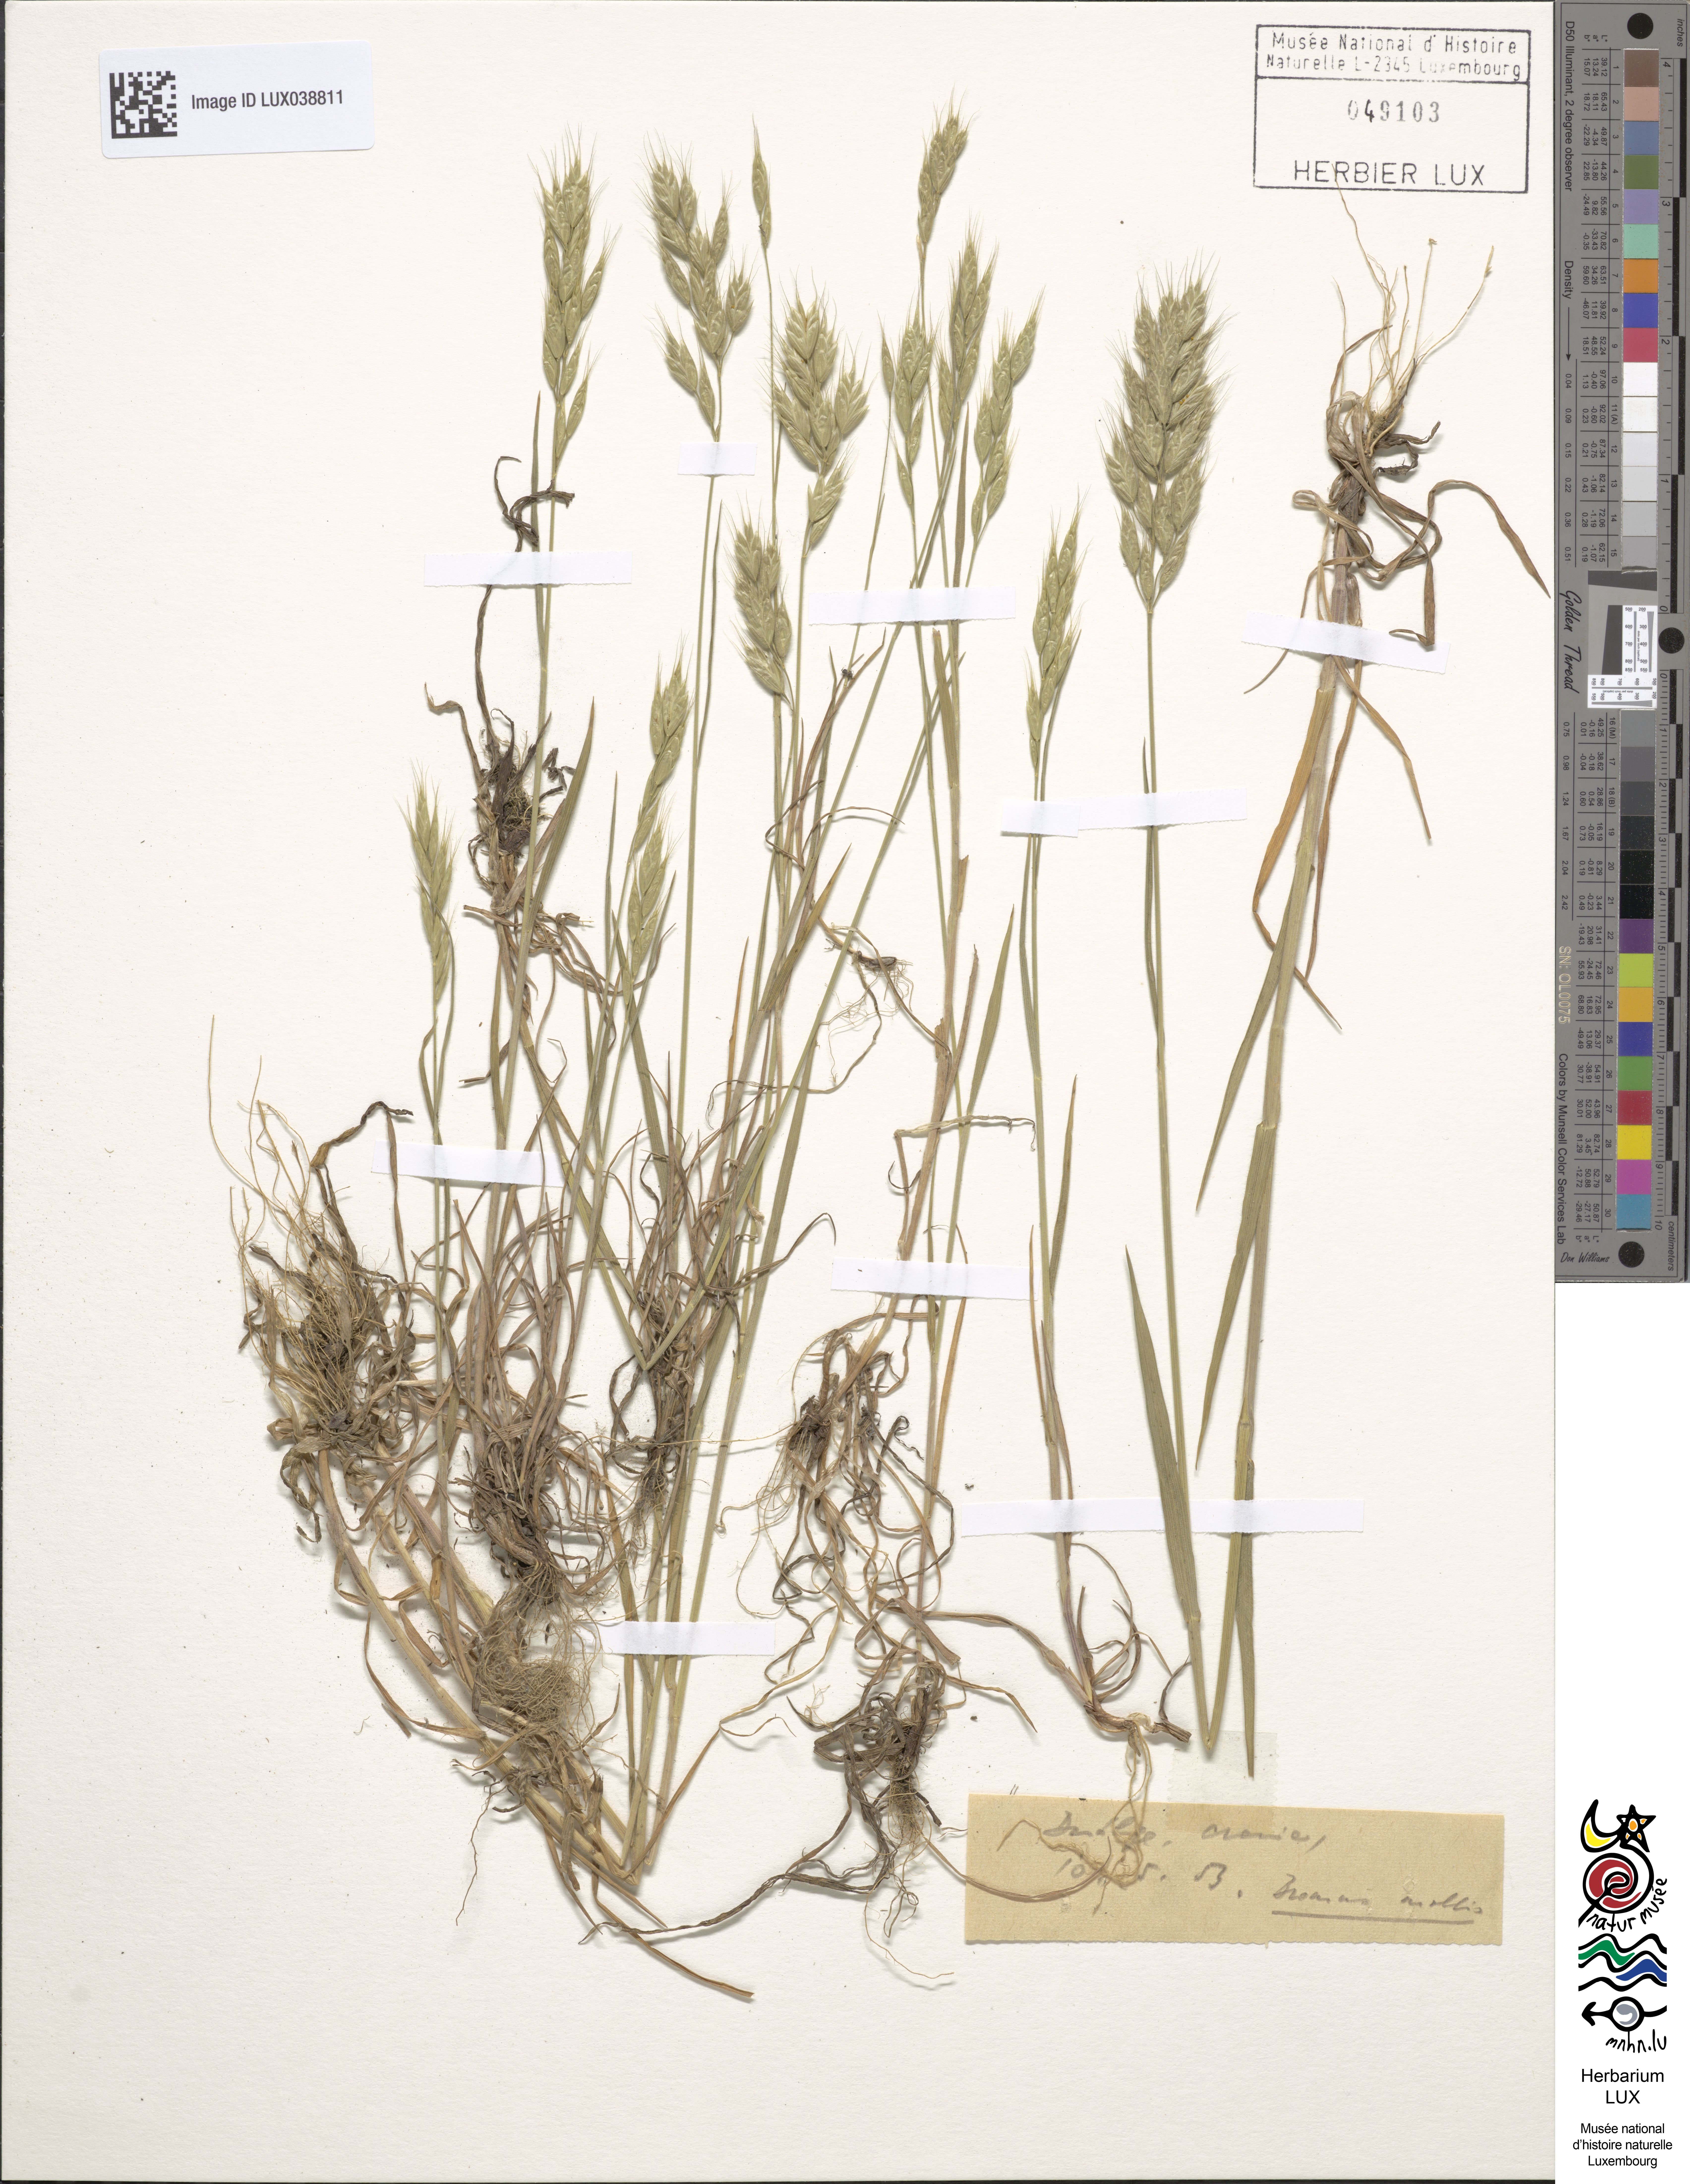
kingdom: Plantae
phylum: Tracheophyta
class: Liliopsida
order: Poales
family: Poaceae
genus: Bromus
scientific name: Bromus hordeaceus
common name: Soft brome
